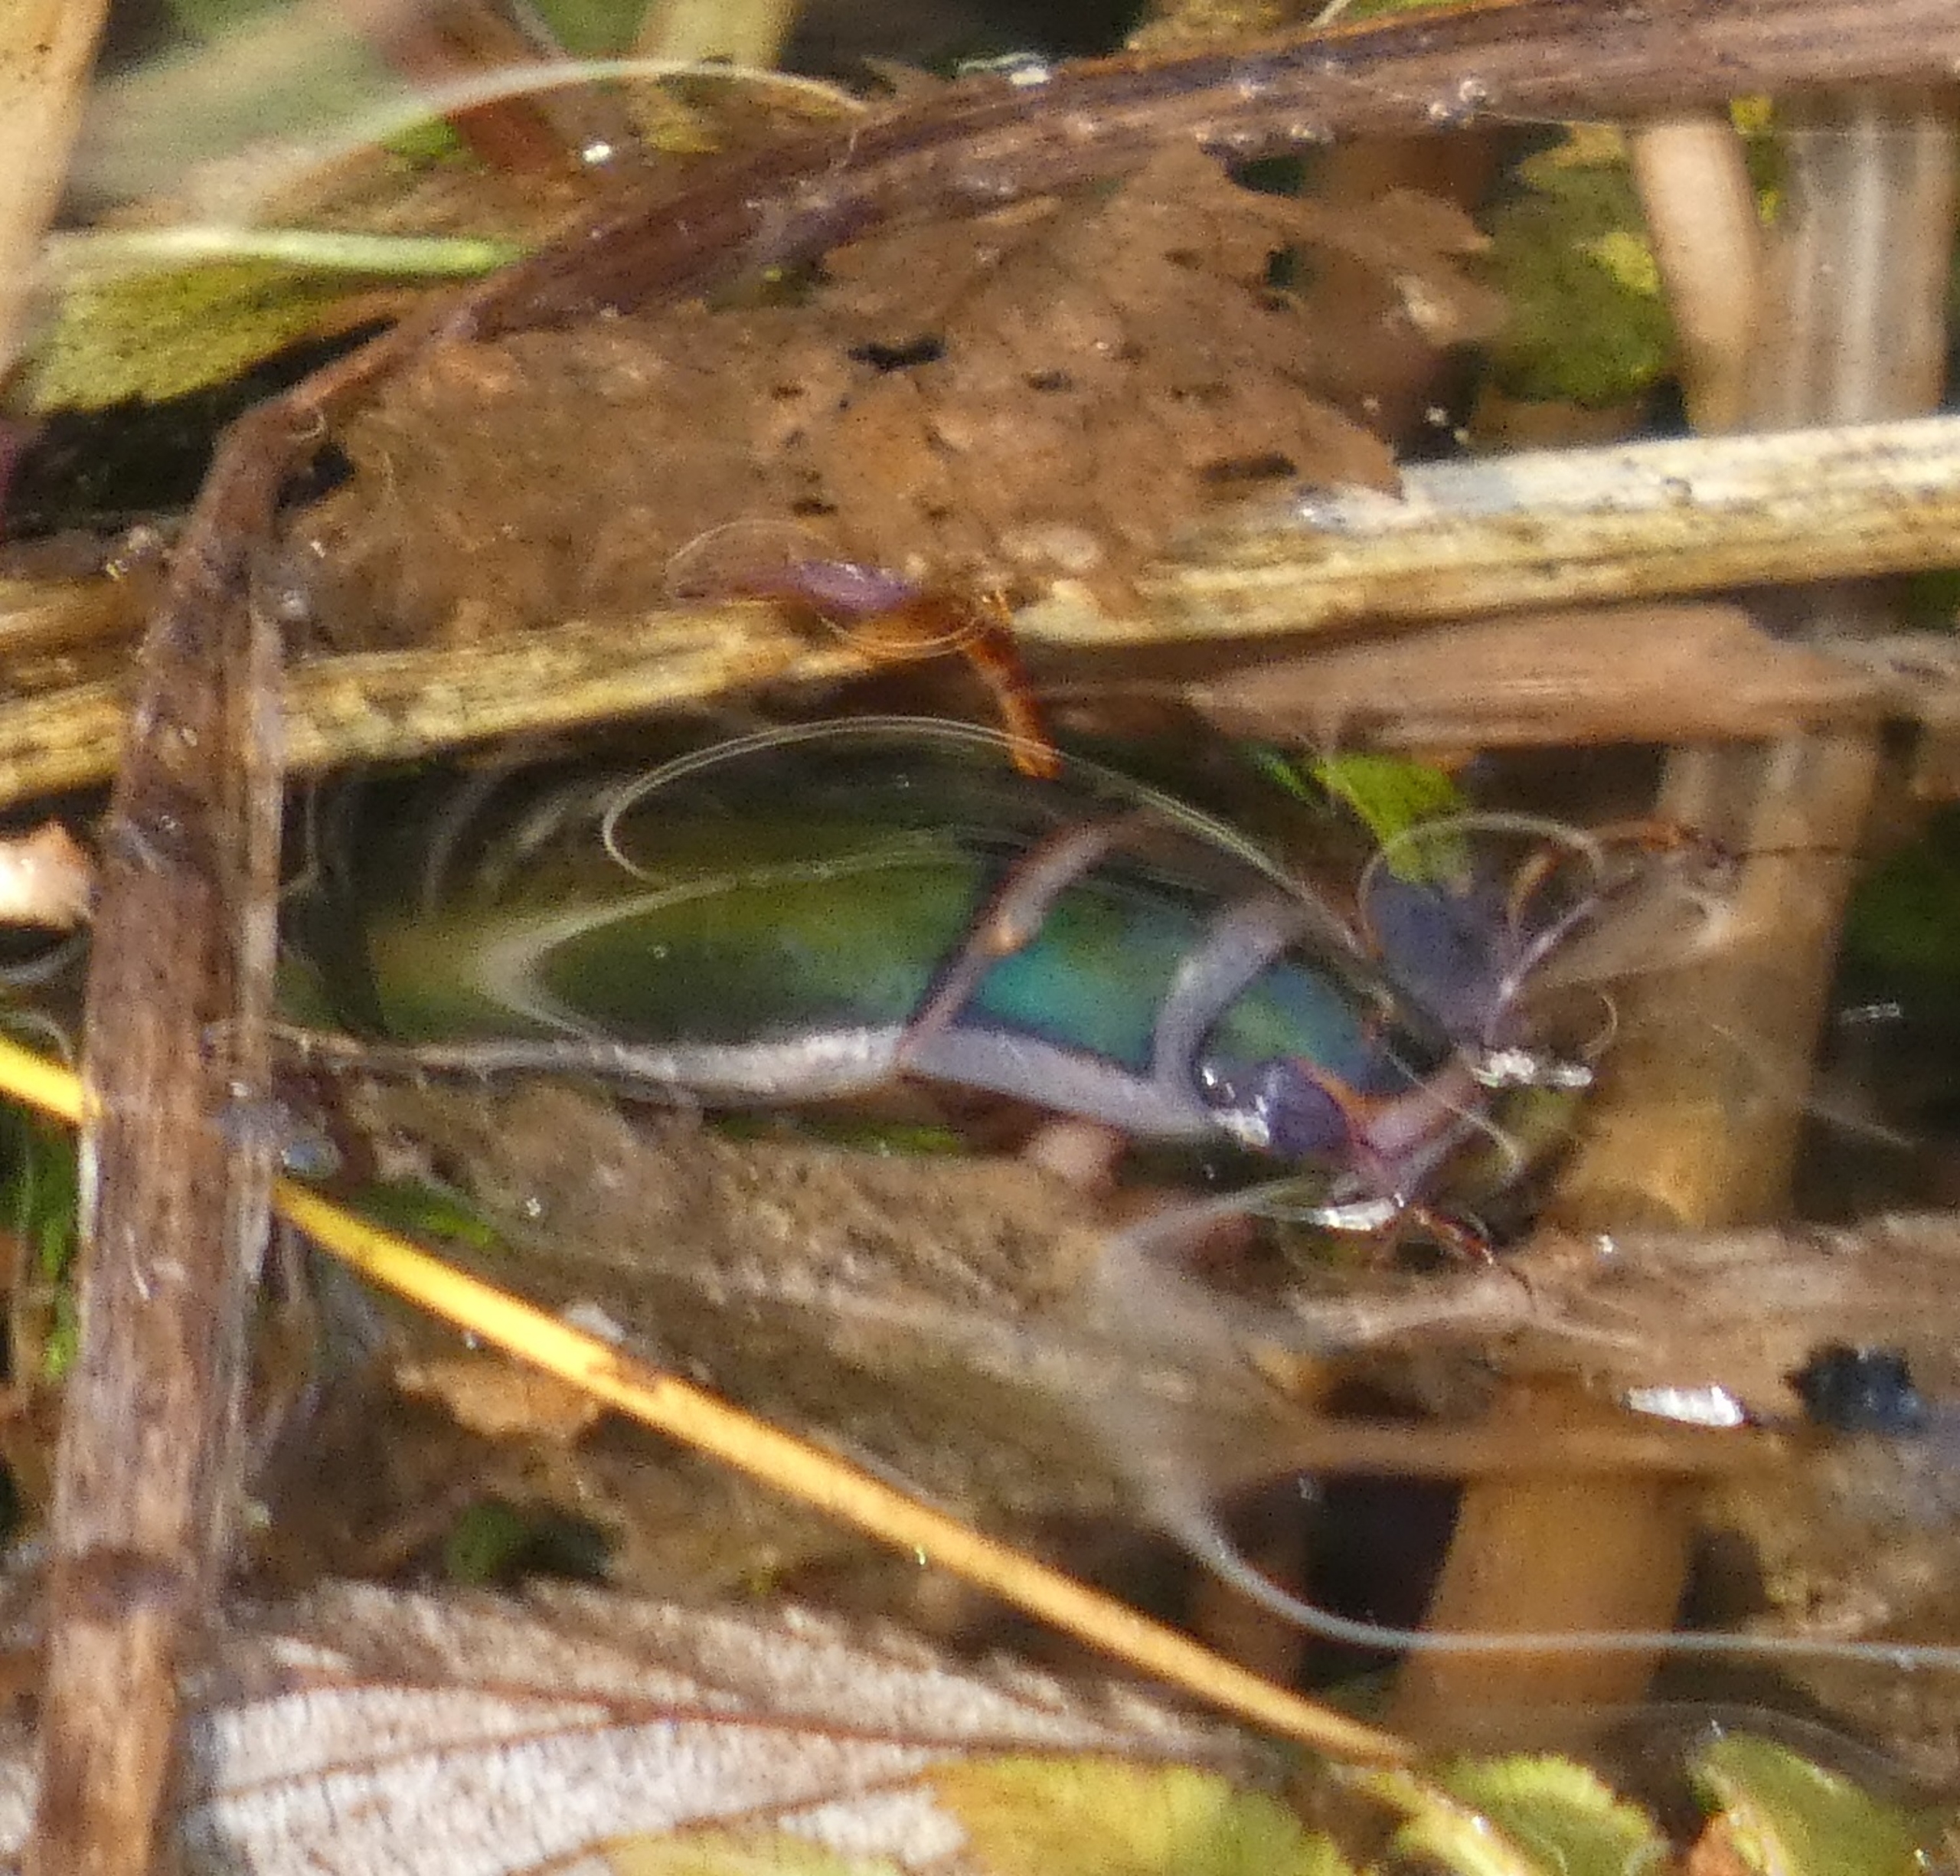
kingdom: Animalia
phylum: Arthropoda
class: Insecta
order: Coleoptera
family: Dytiscidae
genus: Dytiscus
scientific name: Dytiscus marginalis
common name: Stor vandkalv
